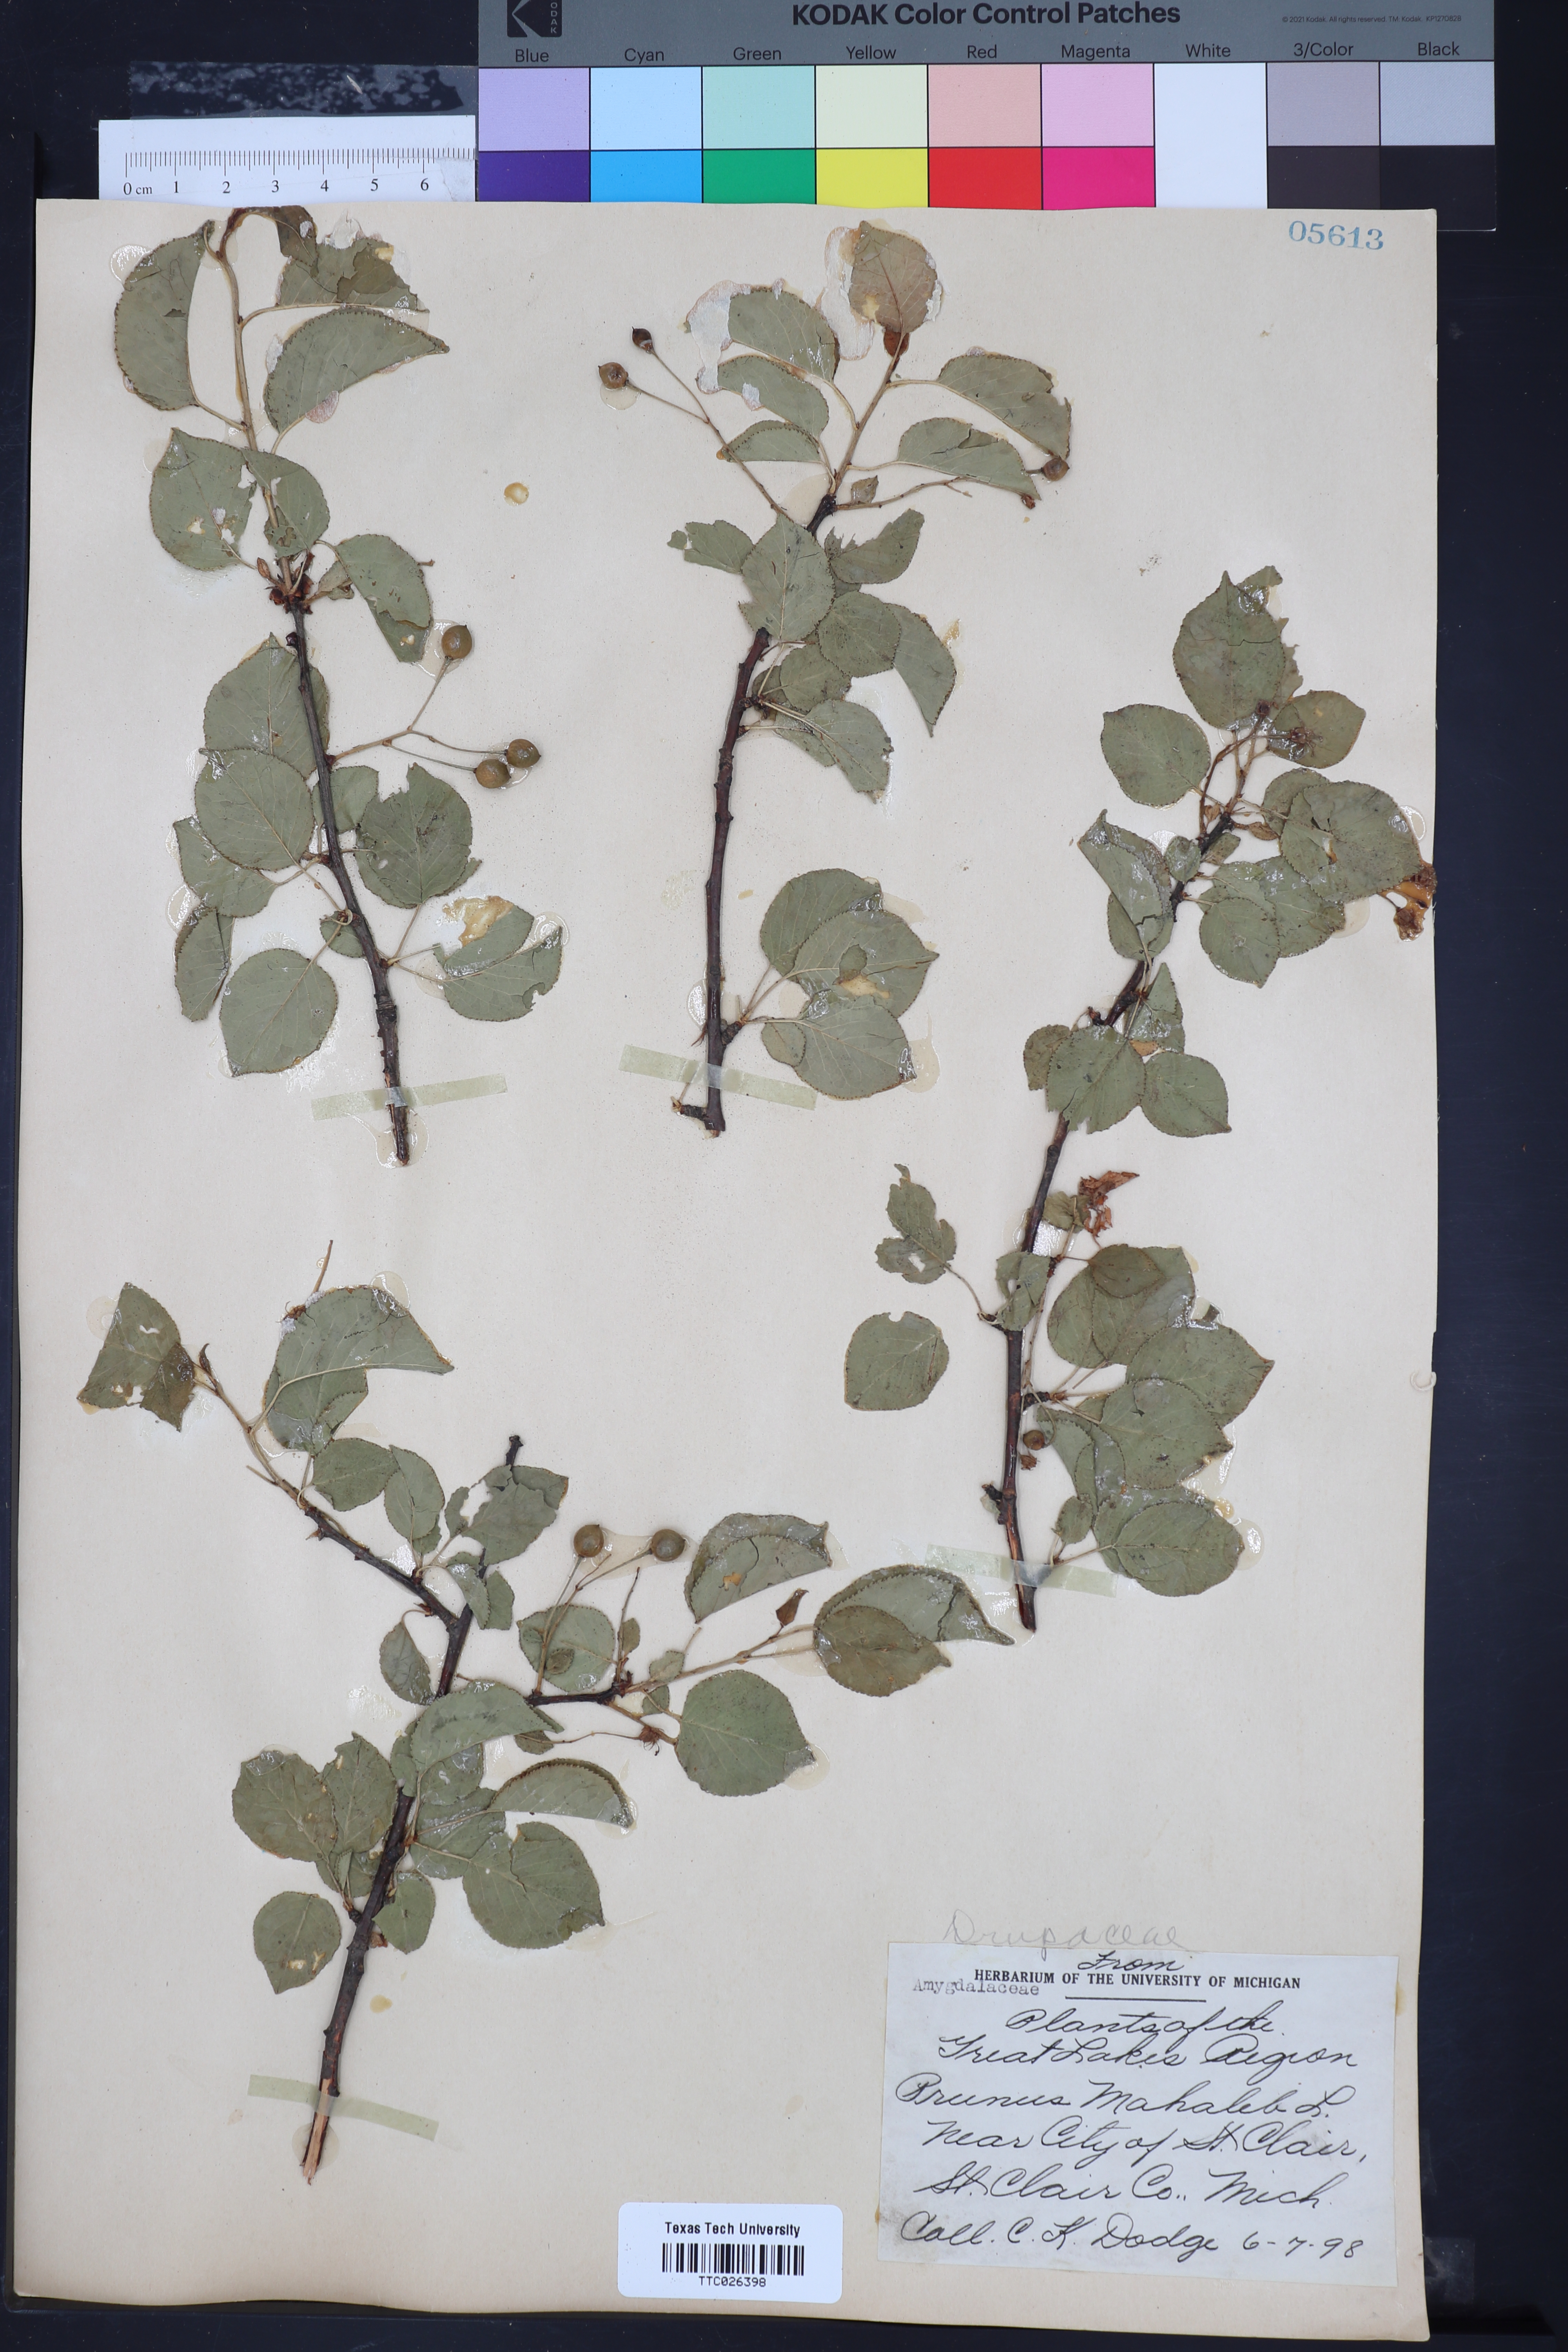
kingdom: Plantae
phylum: Tracheophyta
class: Magnoliopsida
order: Rosales
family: Rosaceae
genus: Prunus
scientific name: Prunus mahaleb
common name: Mahaleb cherry
